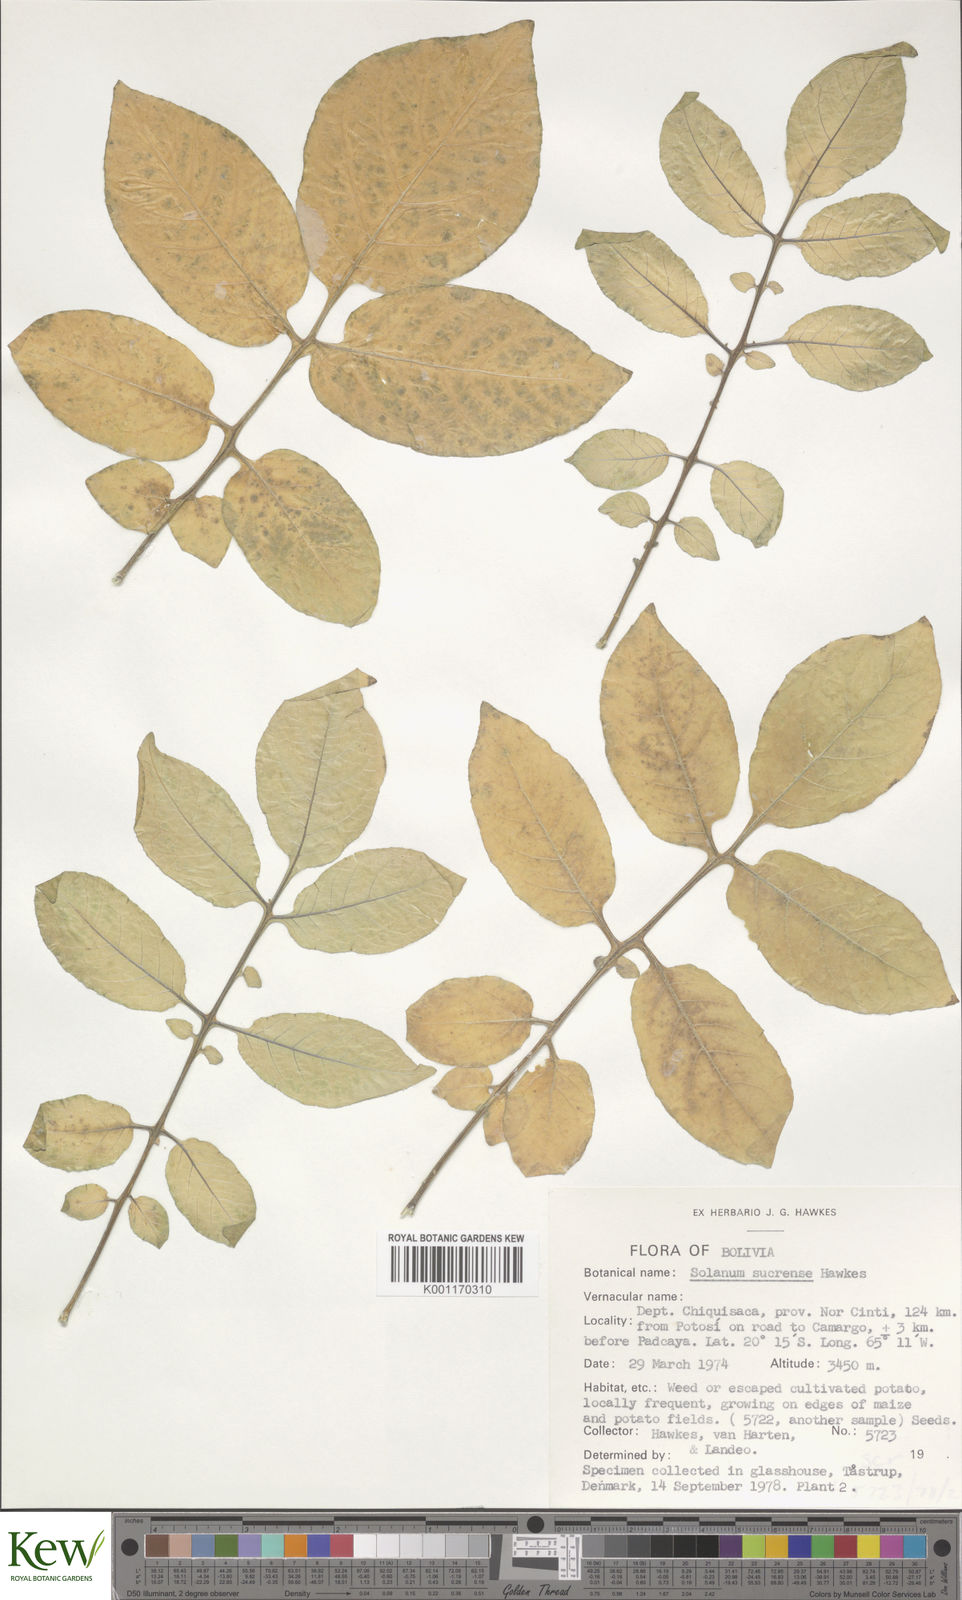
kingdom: Plantae
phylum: Tracheophyta
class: Magnoliopsida
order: Solanales
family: Solanaceae
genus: Solanum
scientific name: Solanum brevicaule
